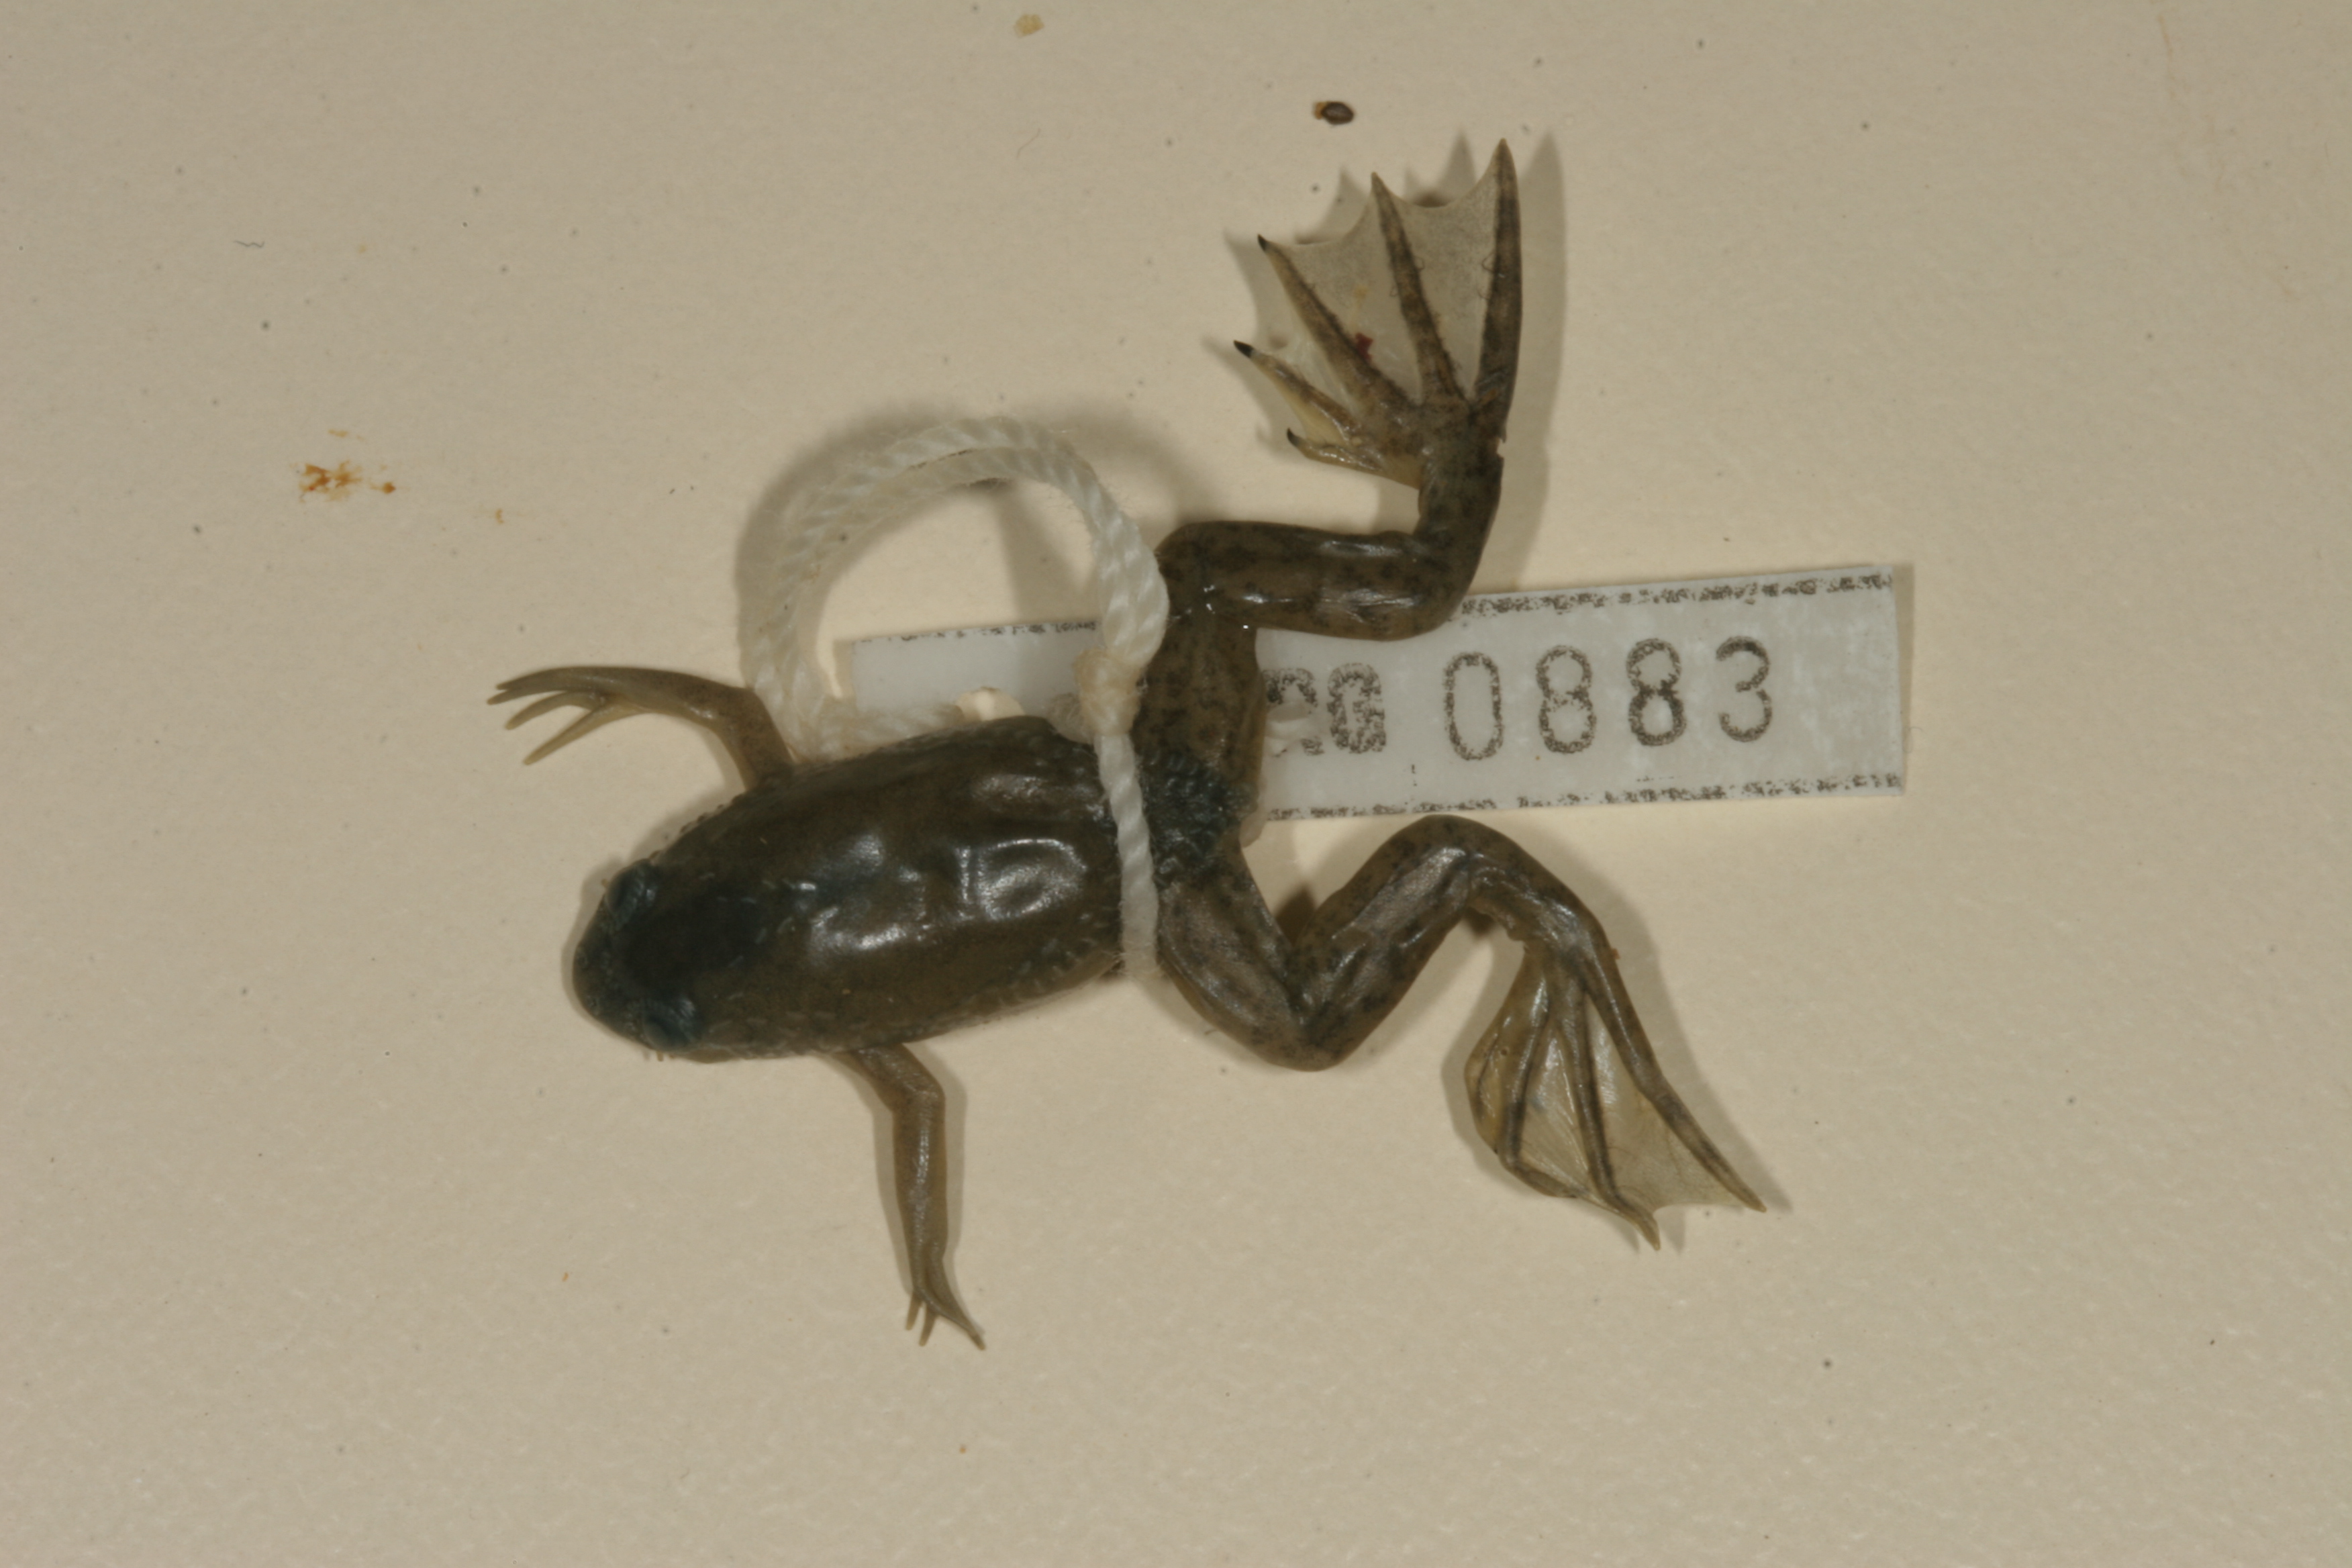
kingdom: Animalia
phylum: Chordata
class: Amphibia
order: Anura
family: Pipidae
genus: Xenopus
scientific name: Xenopus laevis
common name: African clawed frog
